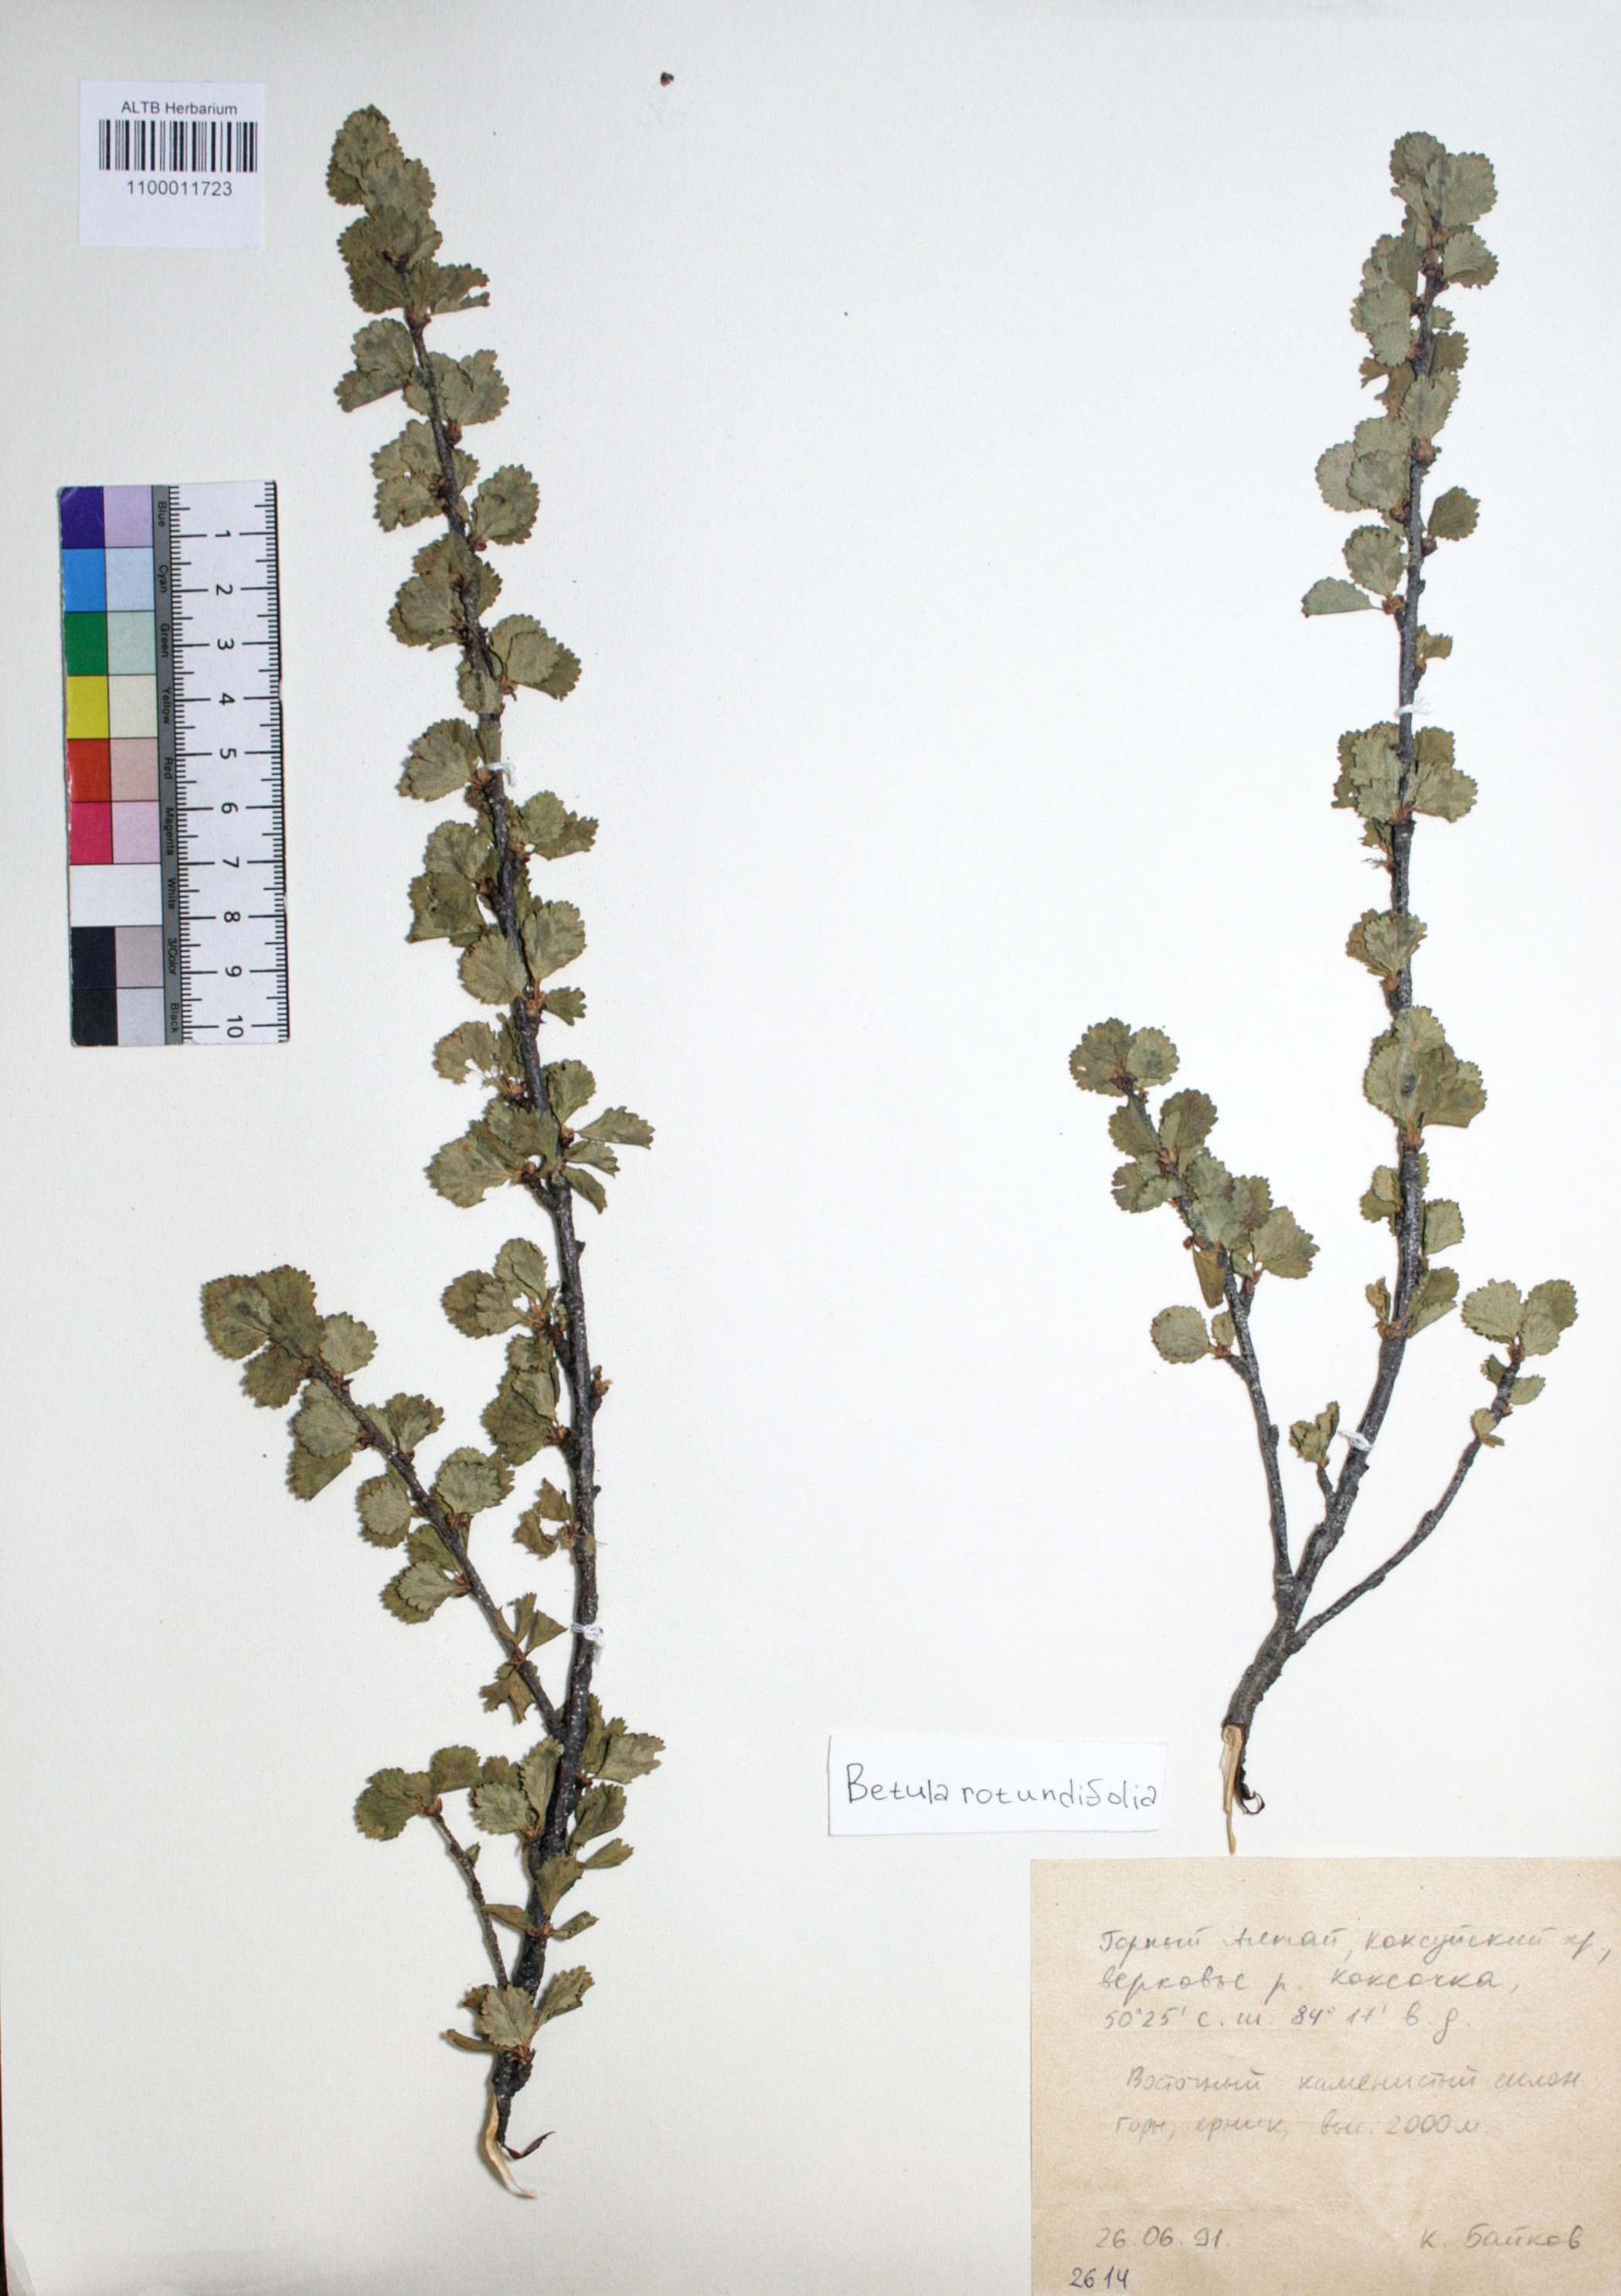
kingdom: Plantae
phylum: Tracheophyta
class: Magnoliopsida
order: Fagales
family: Betulaceae
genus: Betula
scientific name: Betula glandulosa
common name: Dwarf birch
